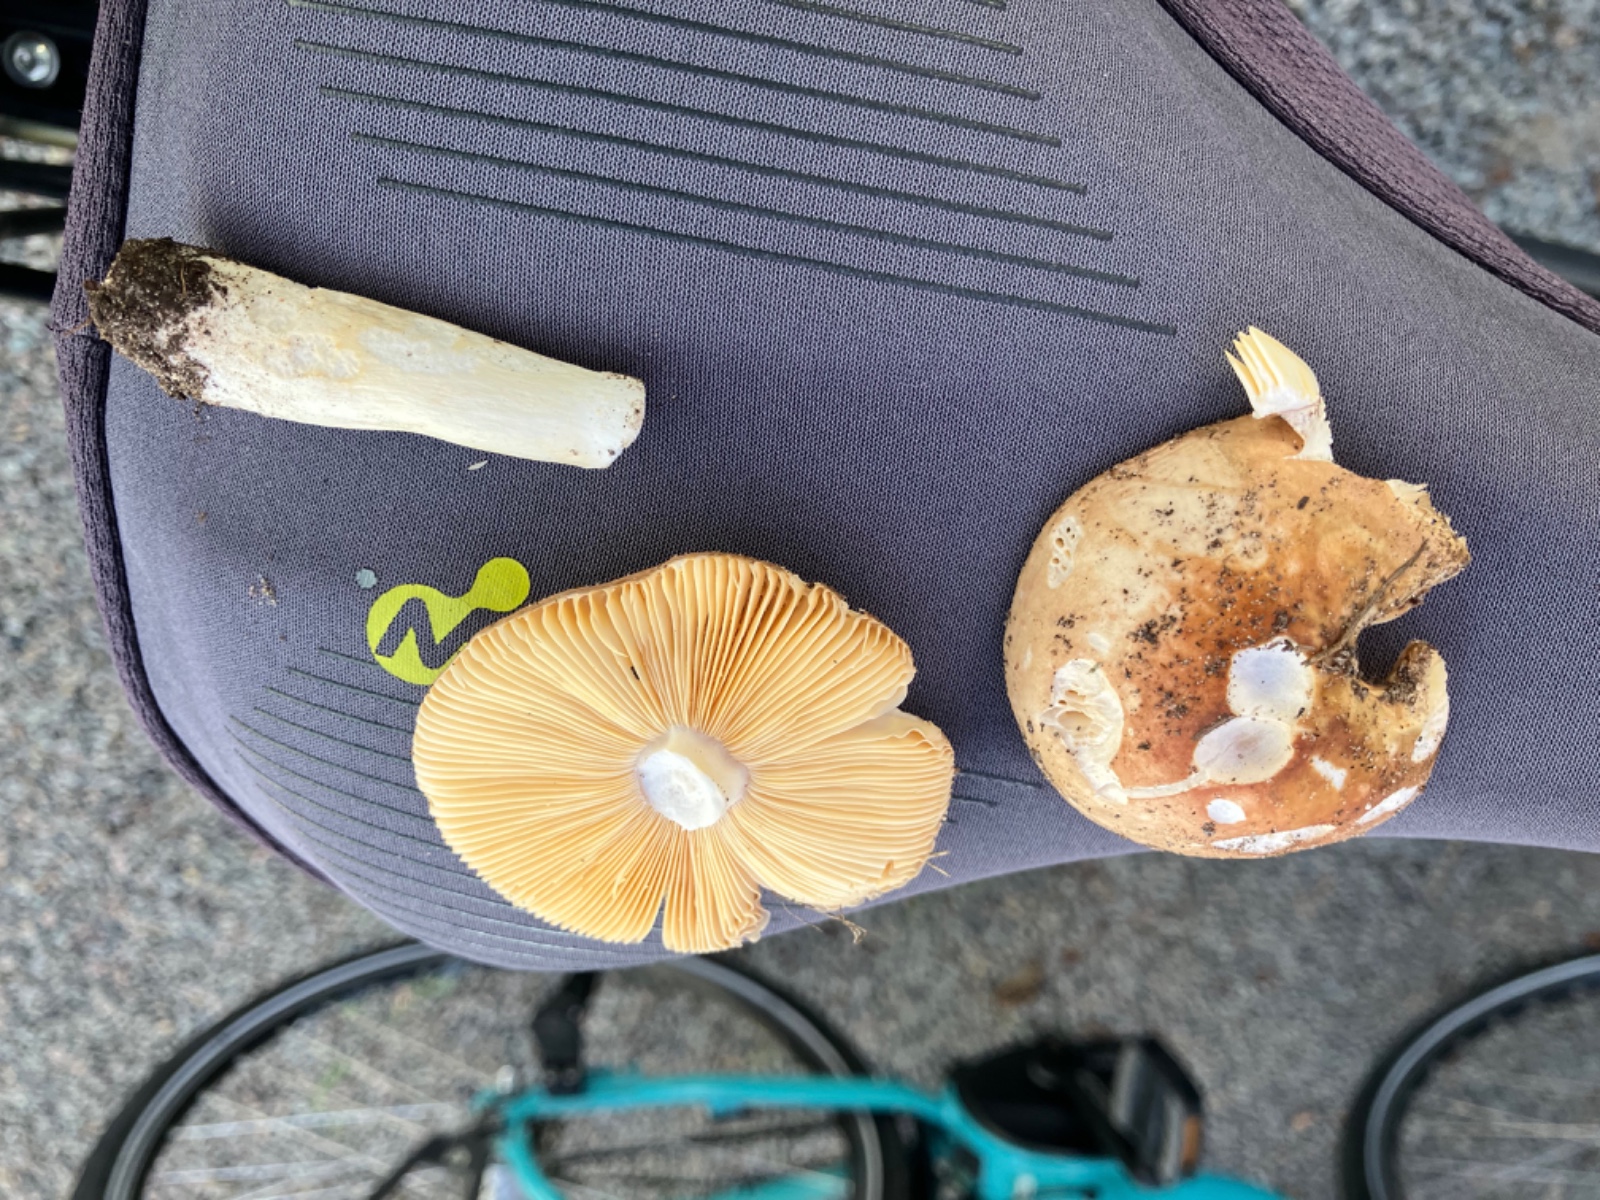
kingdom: Fungi
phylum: Basidiomycota
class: Agaricomycetes
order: Russulales
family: Russulaceae
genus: Russula
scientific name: Russula
